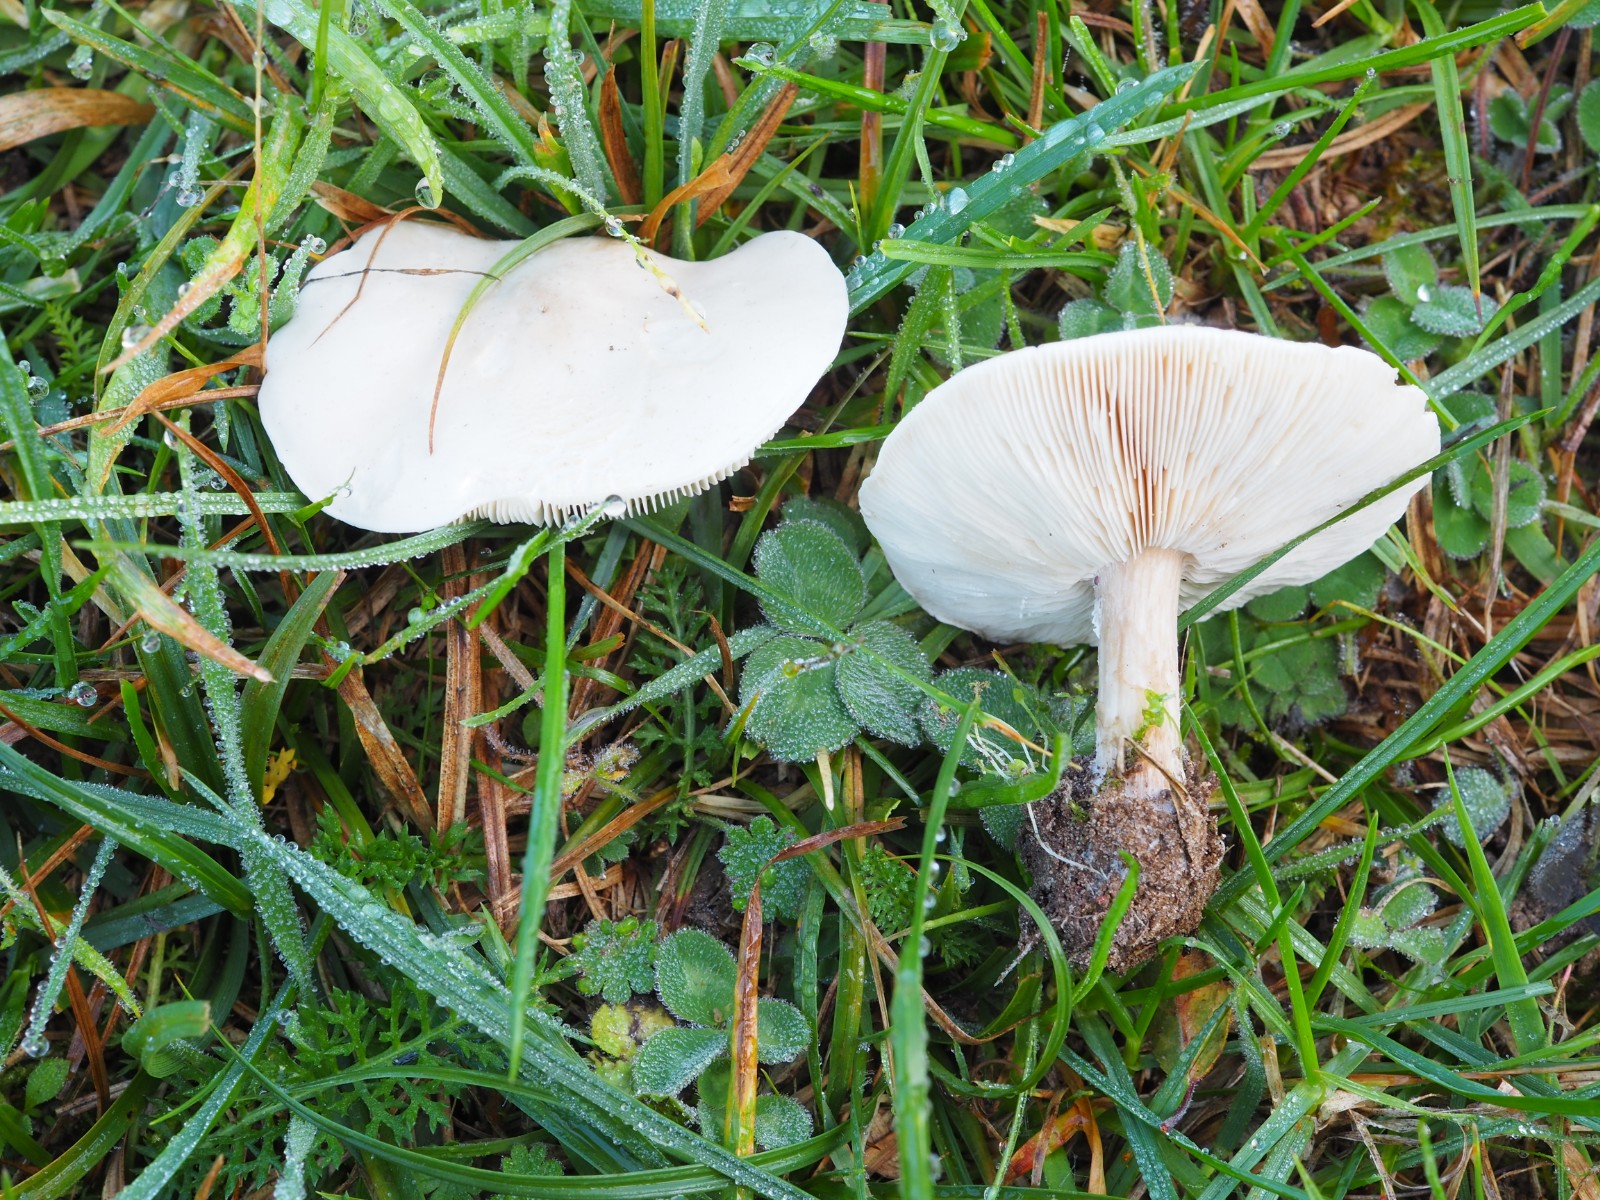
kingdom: Fungi
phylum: Basidiomycota
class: Agaricomycetes
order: Agaricales
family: Tricholomataceae
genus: Melanoleuca
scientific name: Melanoleuca diverticulata
